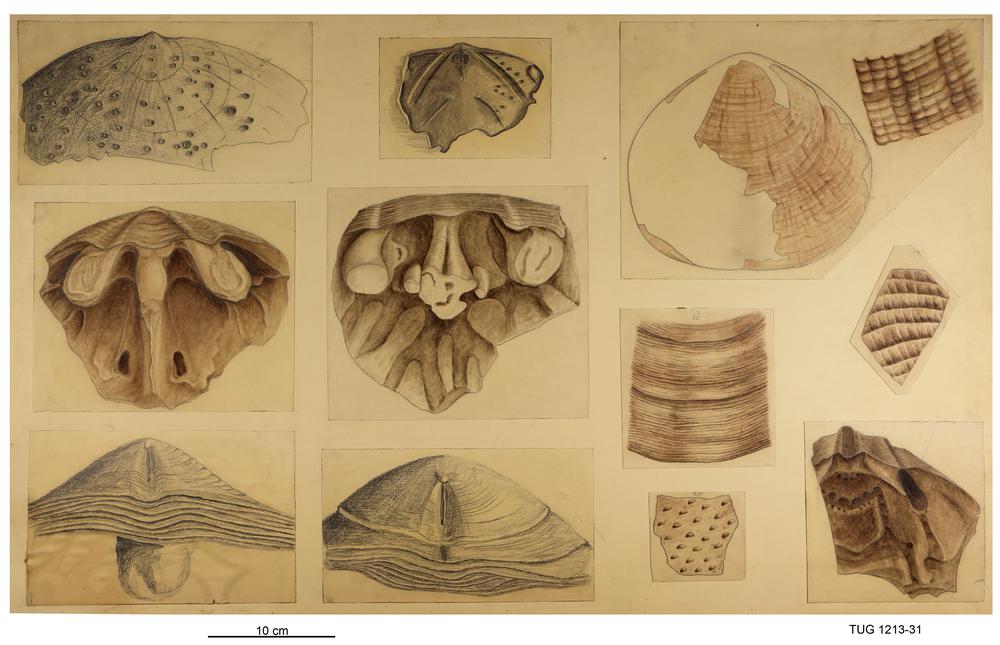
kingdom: Animalia
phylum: Brachiopoda
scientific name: Brachiopoda
